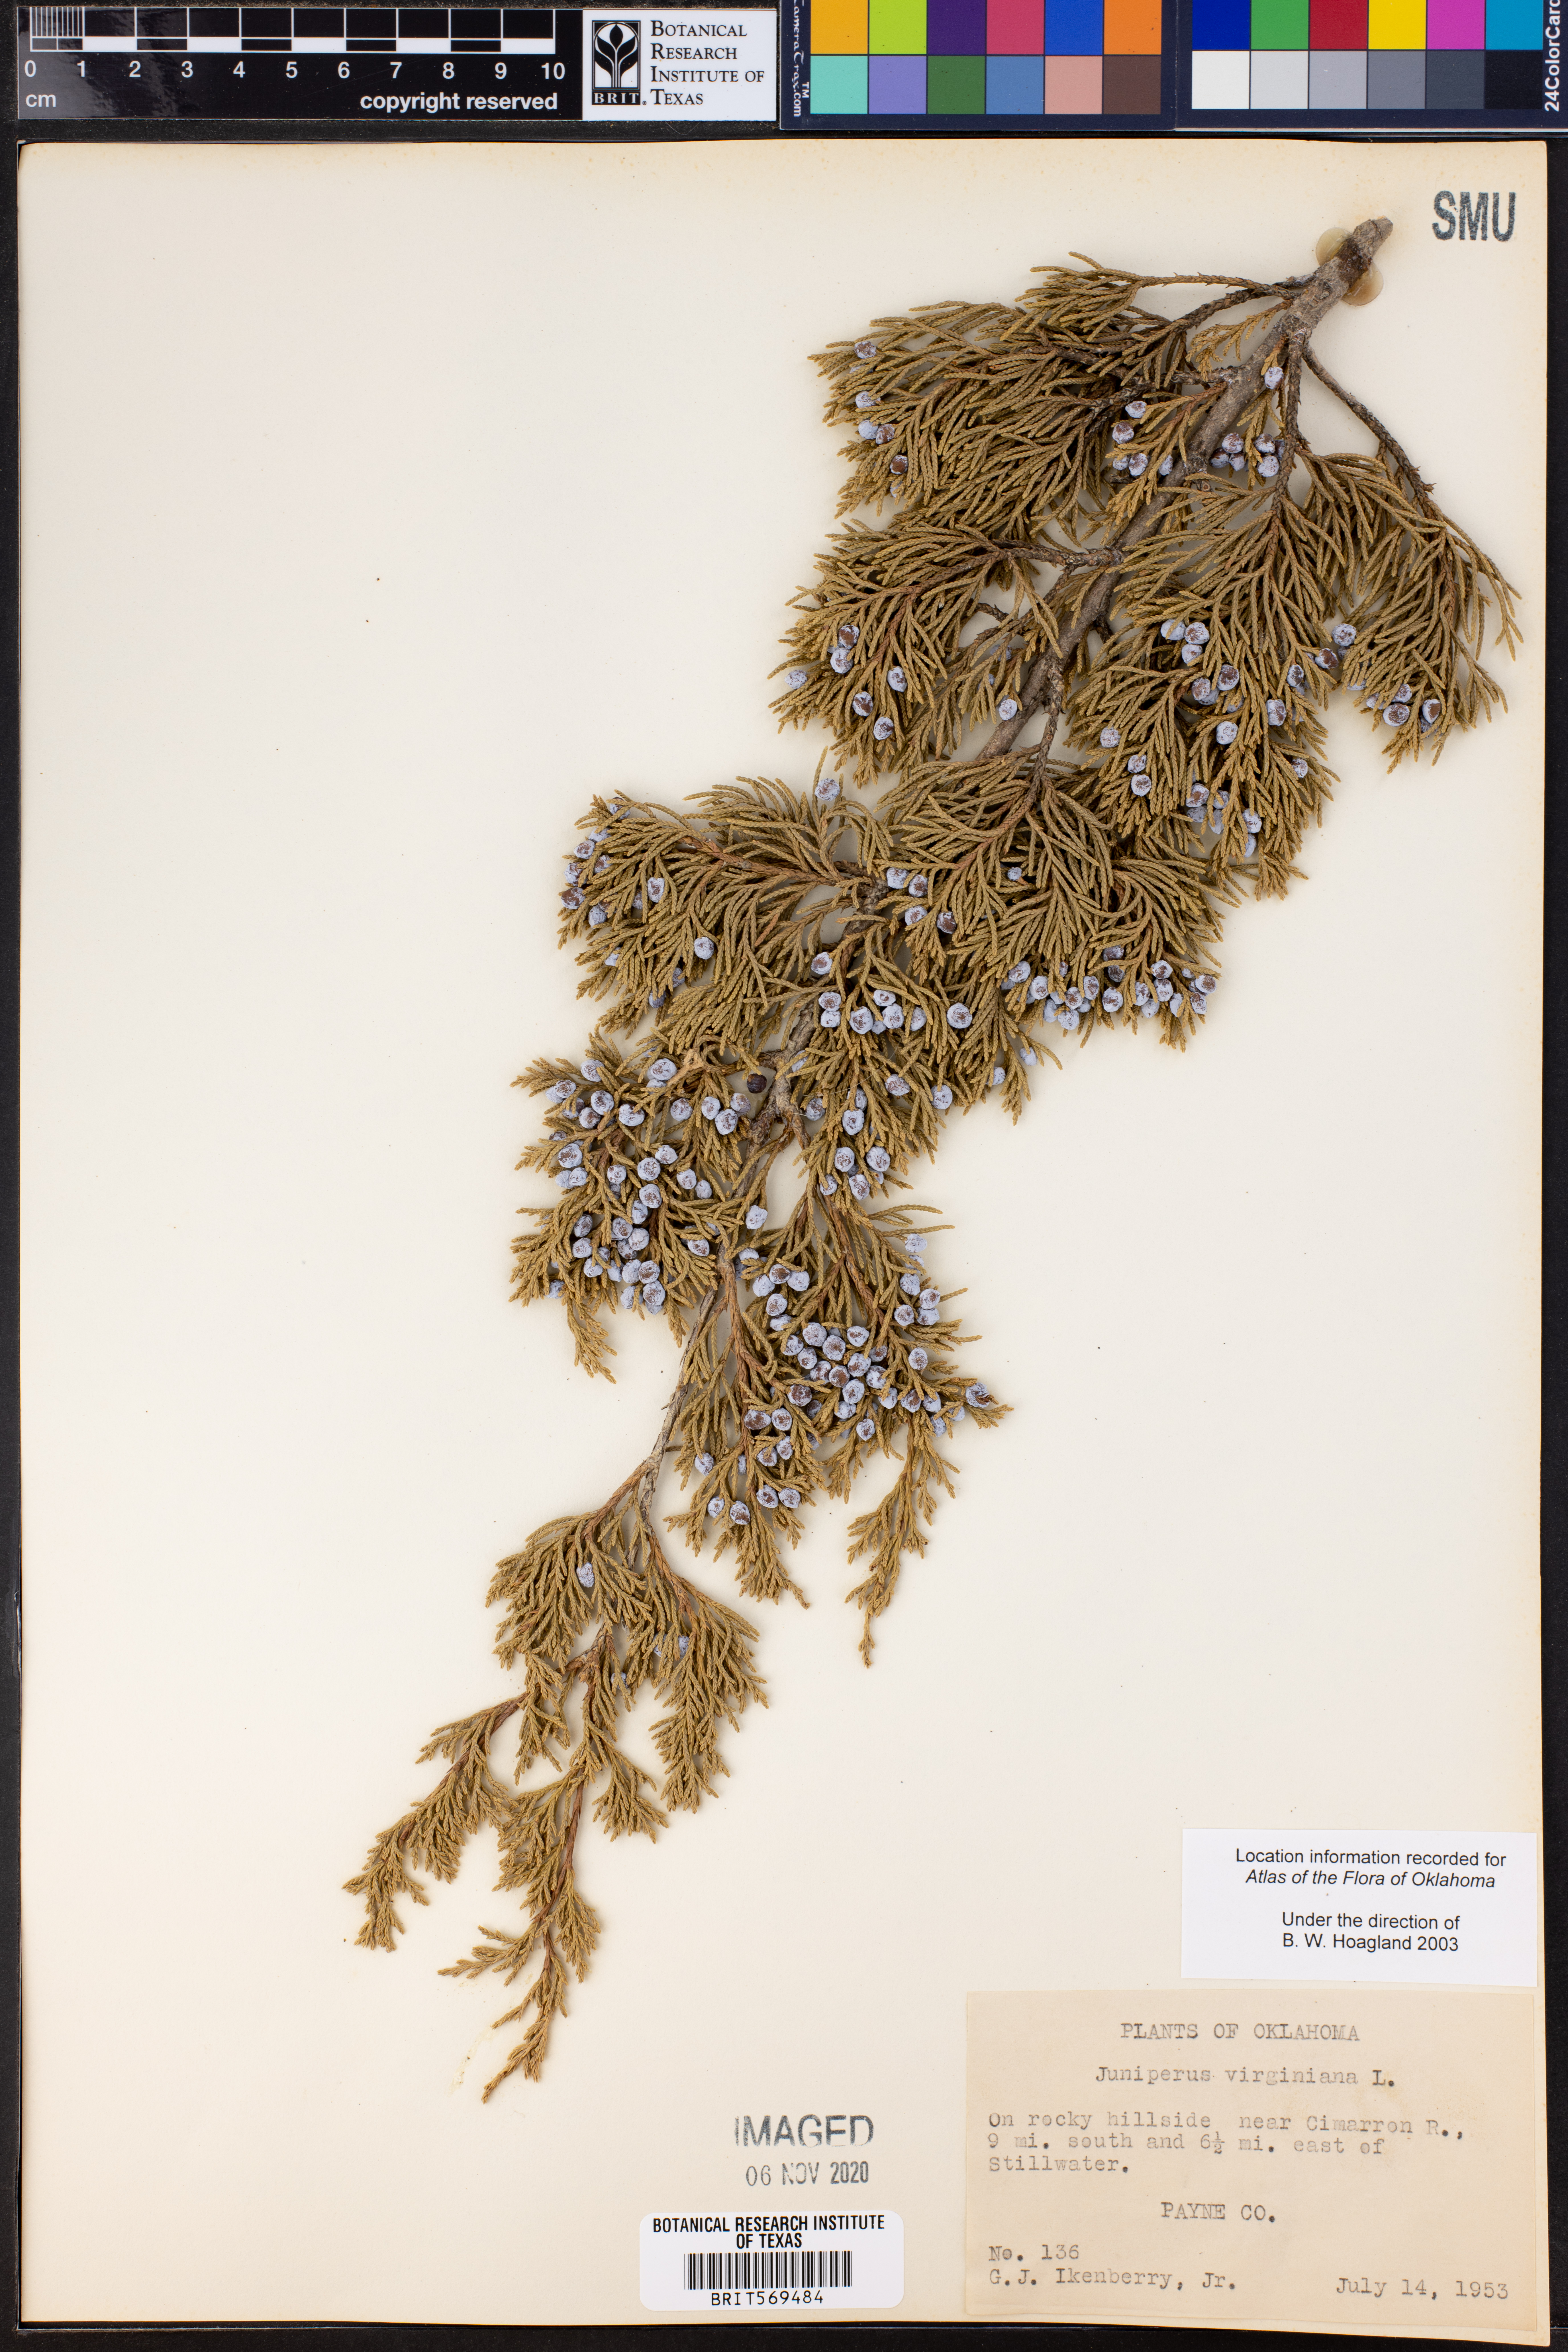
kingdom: Plantae
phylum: Tracheophyta
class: Pinopsida
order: Pinales
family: Cupressaceae
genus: Juniperus
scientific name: Juniperus virginiana
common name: Red juniper
